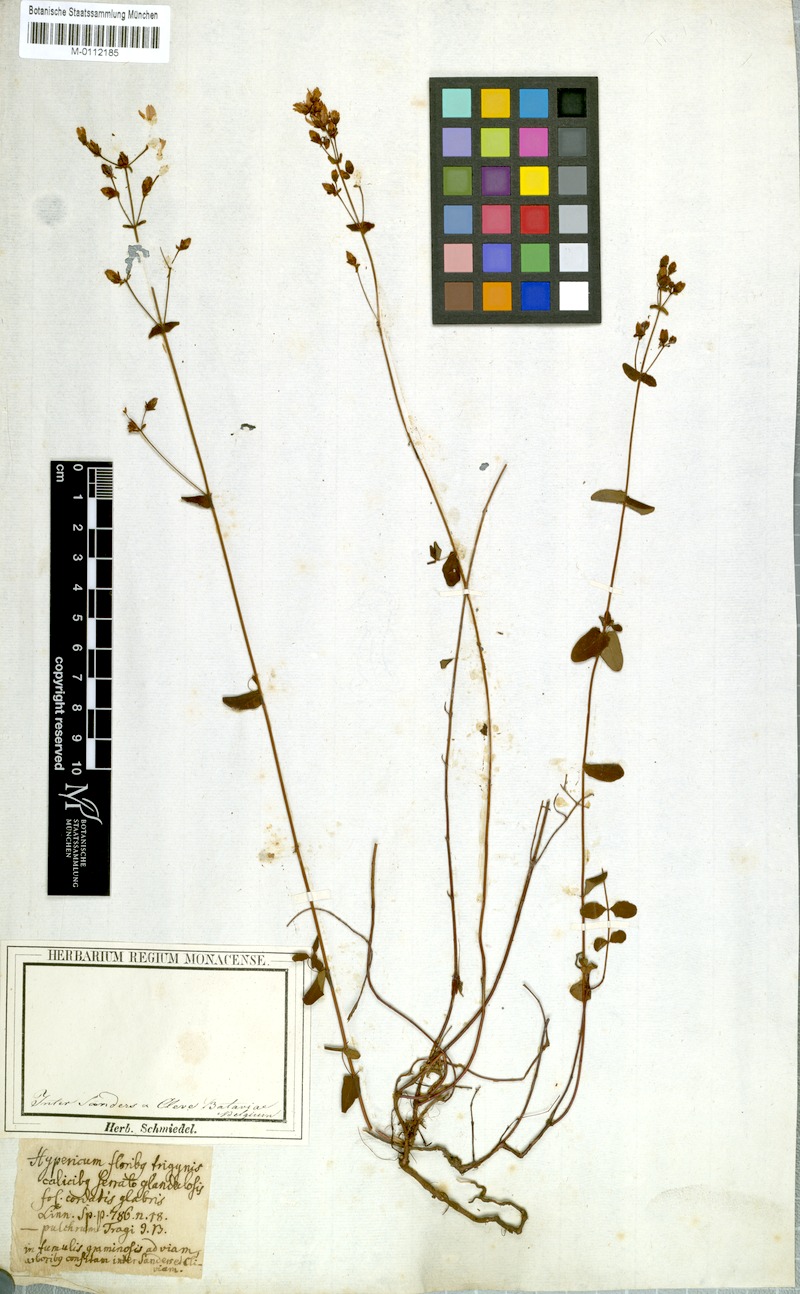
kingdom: Plantae
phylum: Tracheophyta
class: Magnoliopsida
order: Malpighiales
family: Hypericaceae
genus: Hypericum
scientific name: Hypericum pulchrum
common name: Slender st. john's-wort
